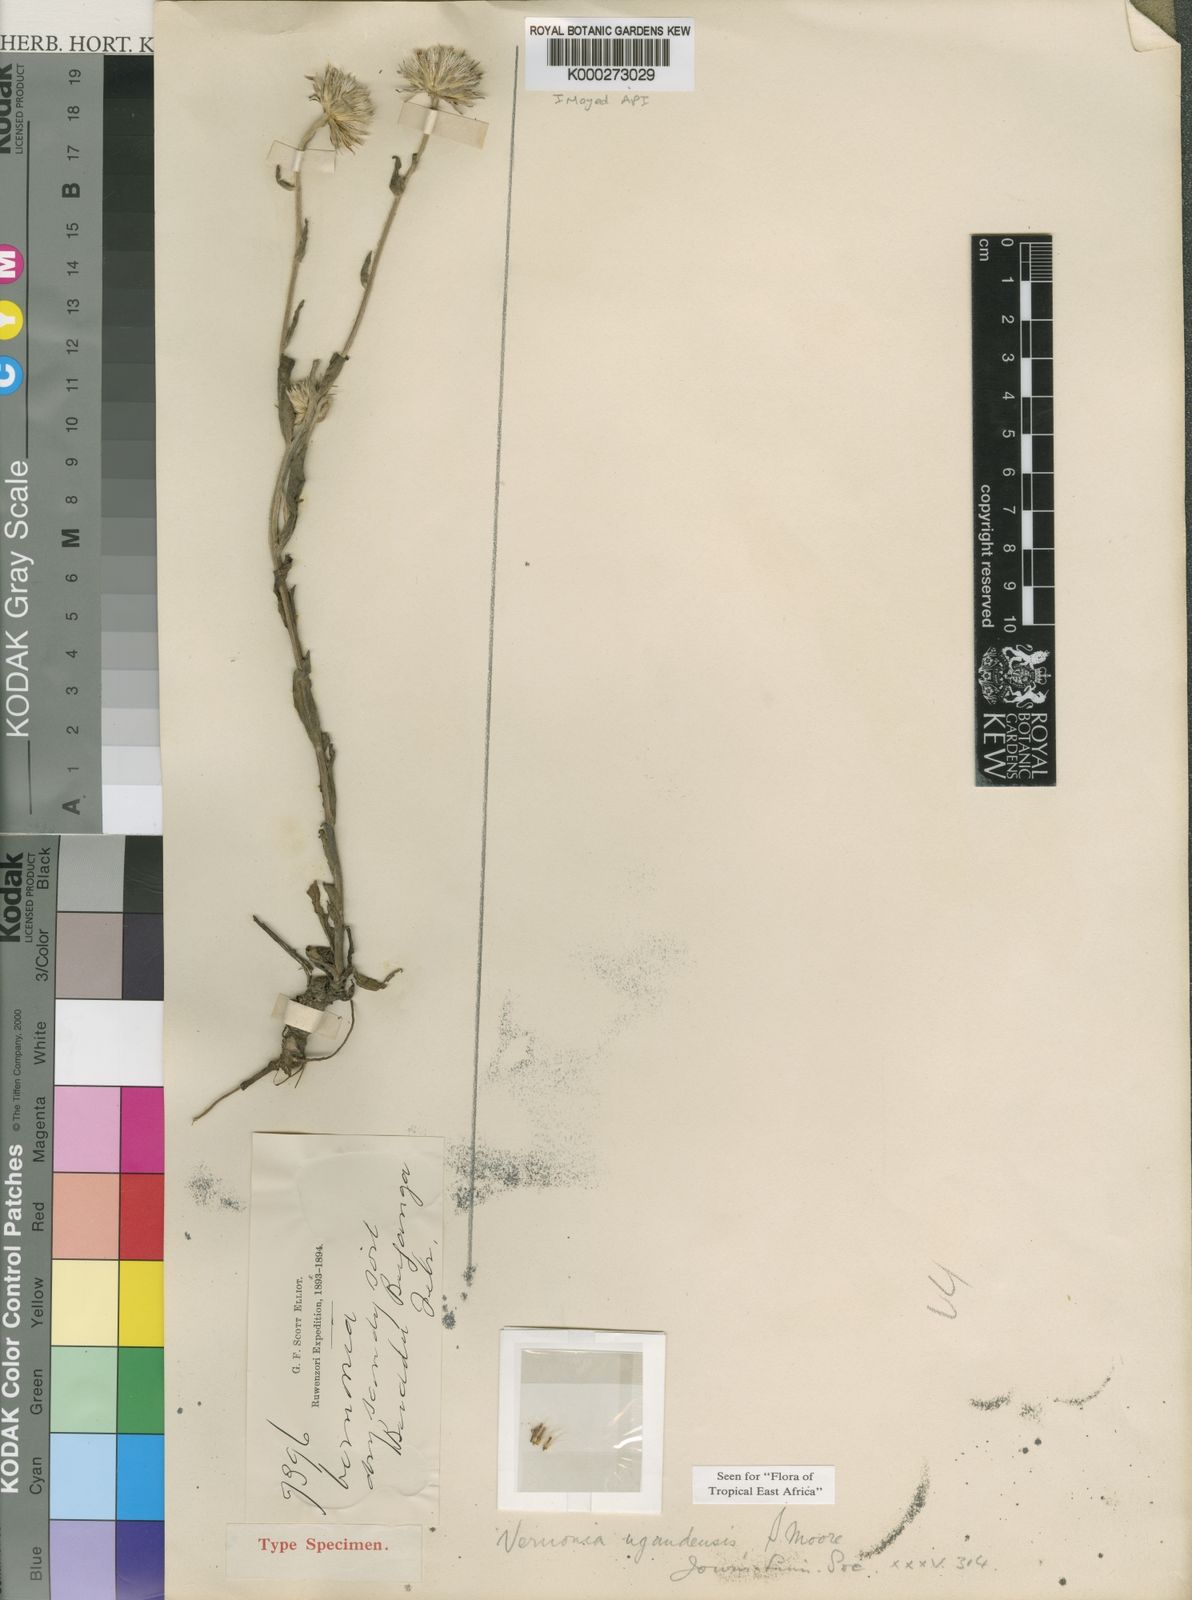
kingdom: Plantae
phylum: Tracheophyta
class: Magnoliopsida
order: Asterales
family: Asteraceae
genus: Vernoniastrum
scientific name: Vernoniastrum ugandense
